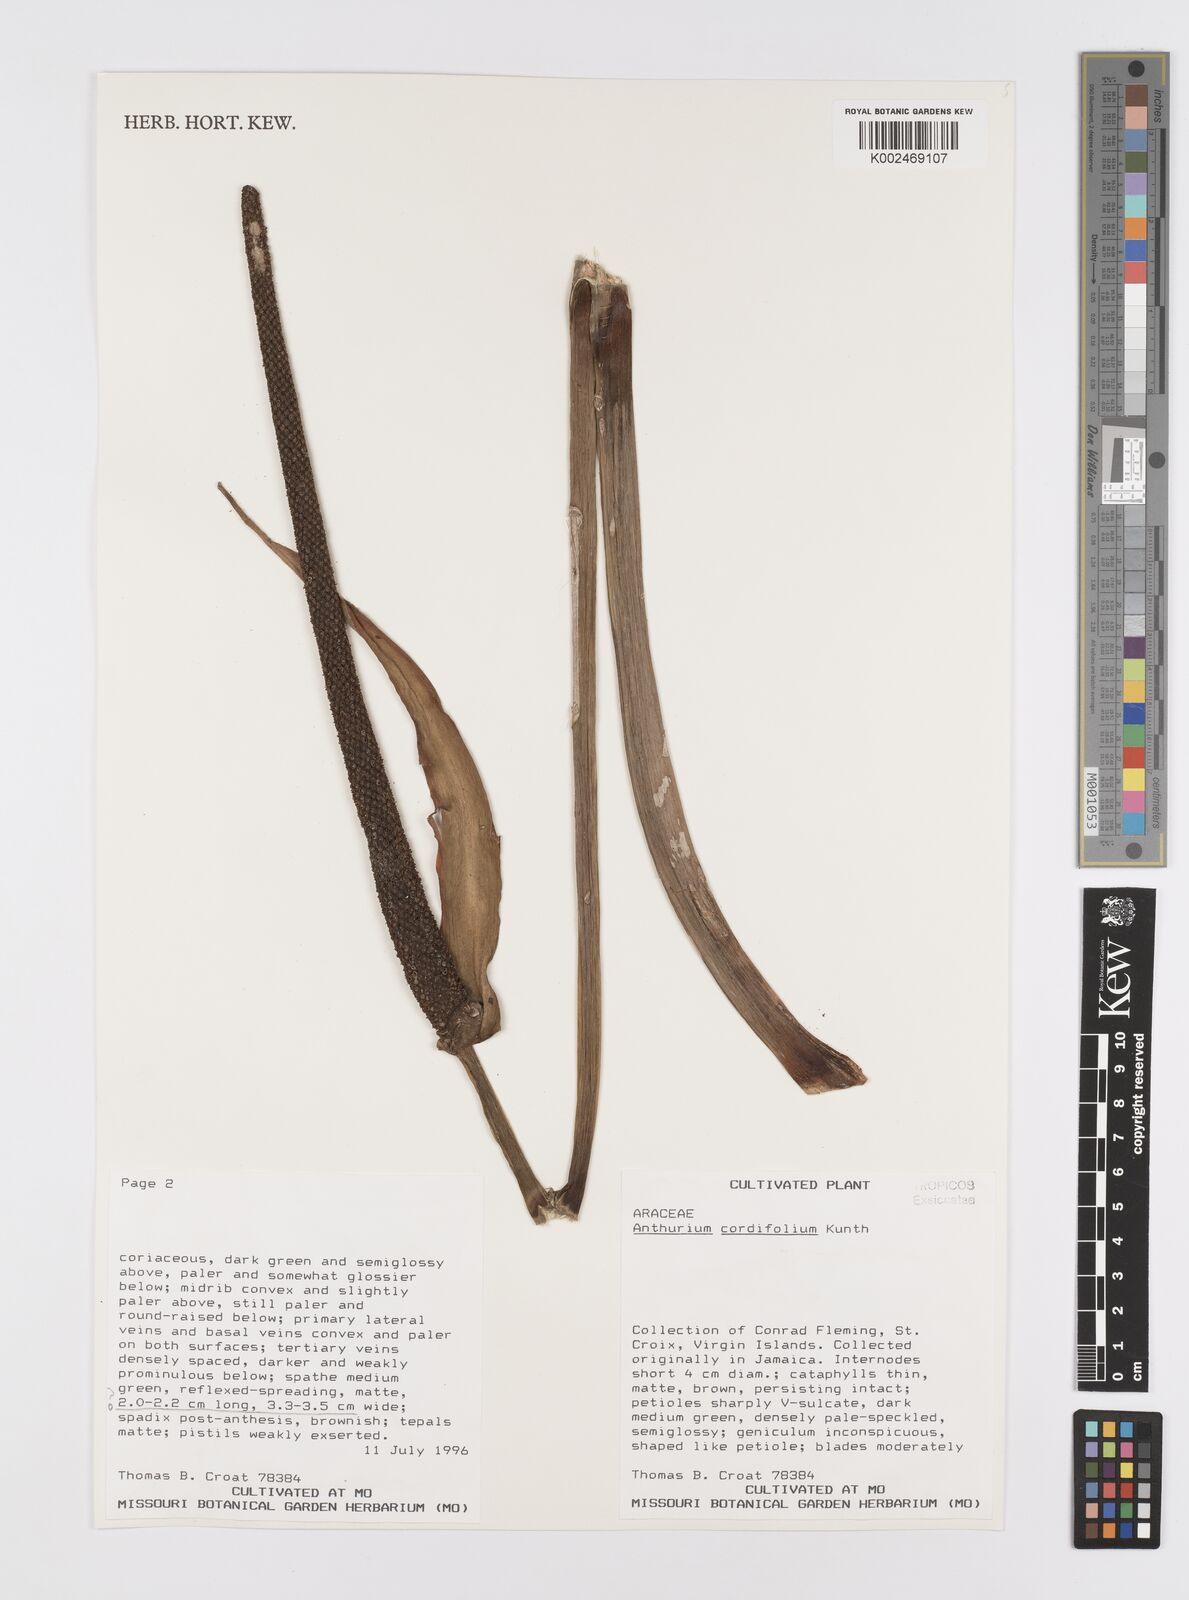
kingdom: Plantae
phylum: Tracheophyta
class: Liliopsida
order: Alismatales
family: Araceae
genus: Anthurium
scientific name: Anthurium grandifolium
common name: Monkey tail
